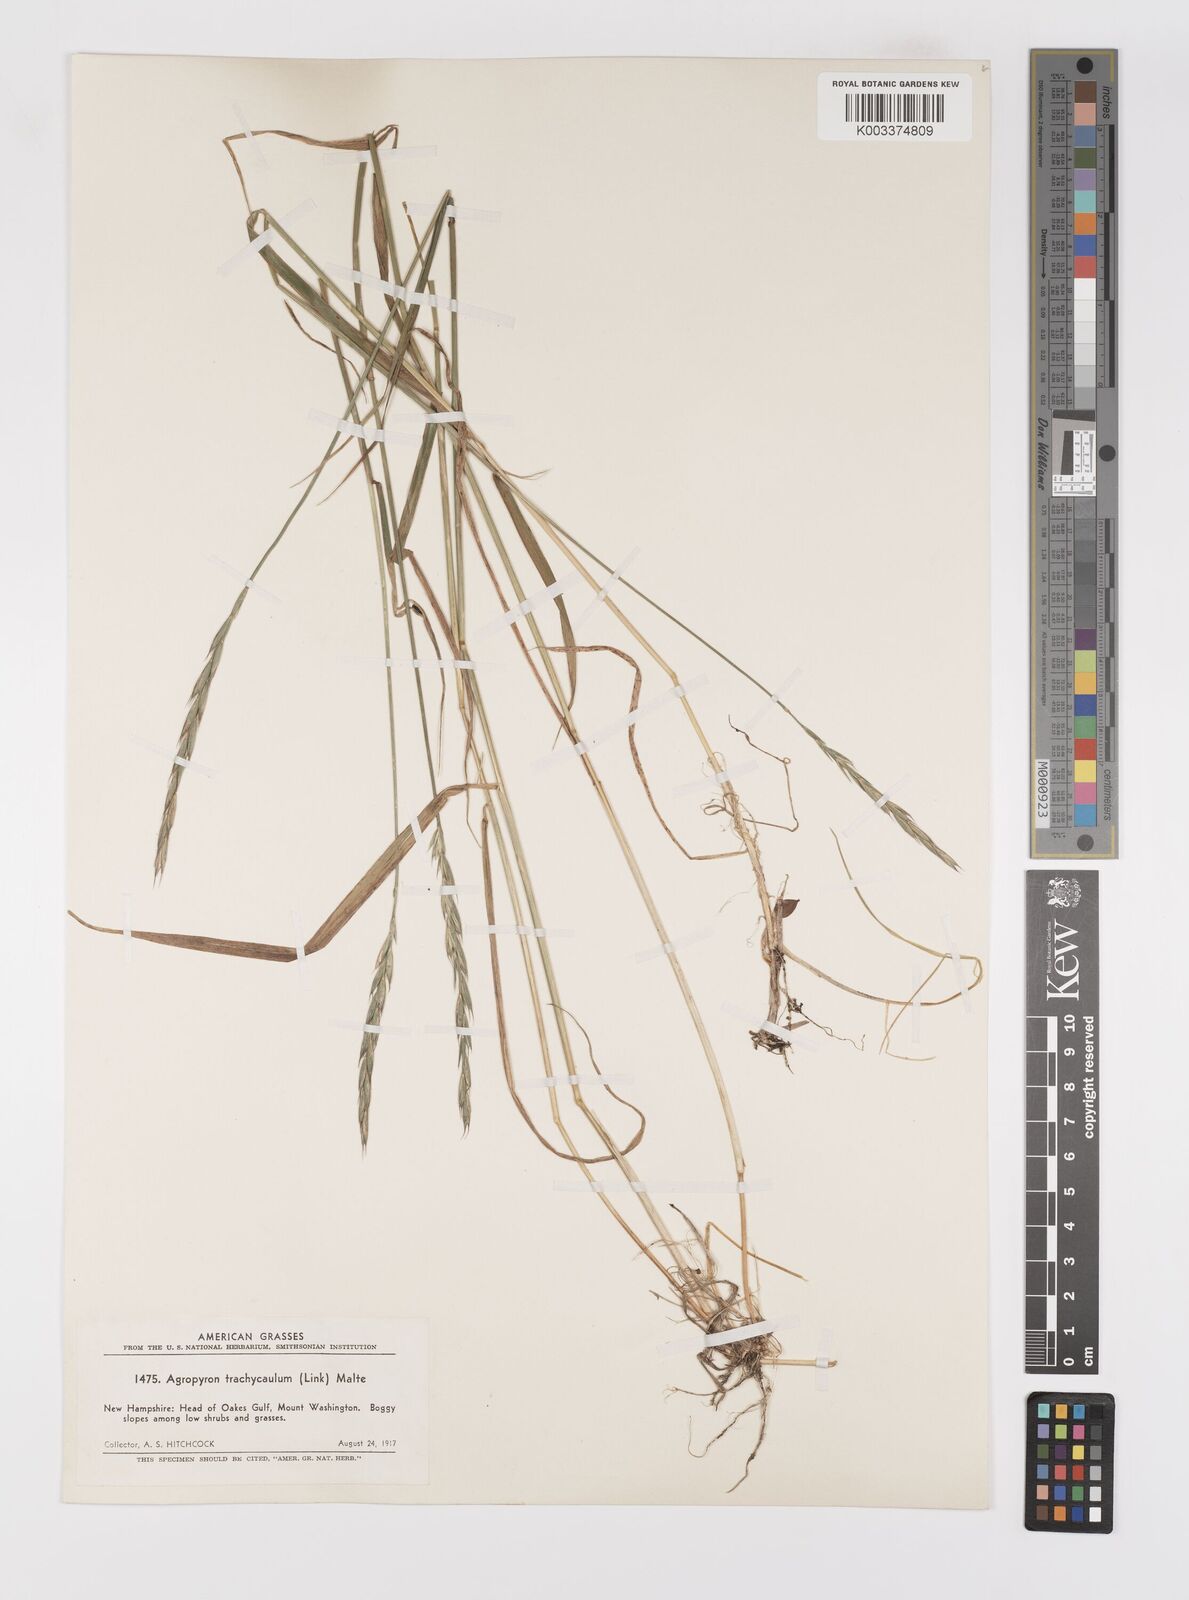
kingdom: Plantae
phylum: Tracheophyta
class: Liliopsida
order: Poales
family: Poaceae
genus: Elymus
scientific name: Elymus violaceus
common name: Arctic wheatgrass
